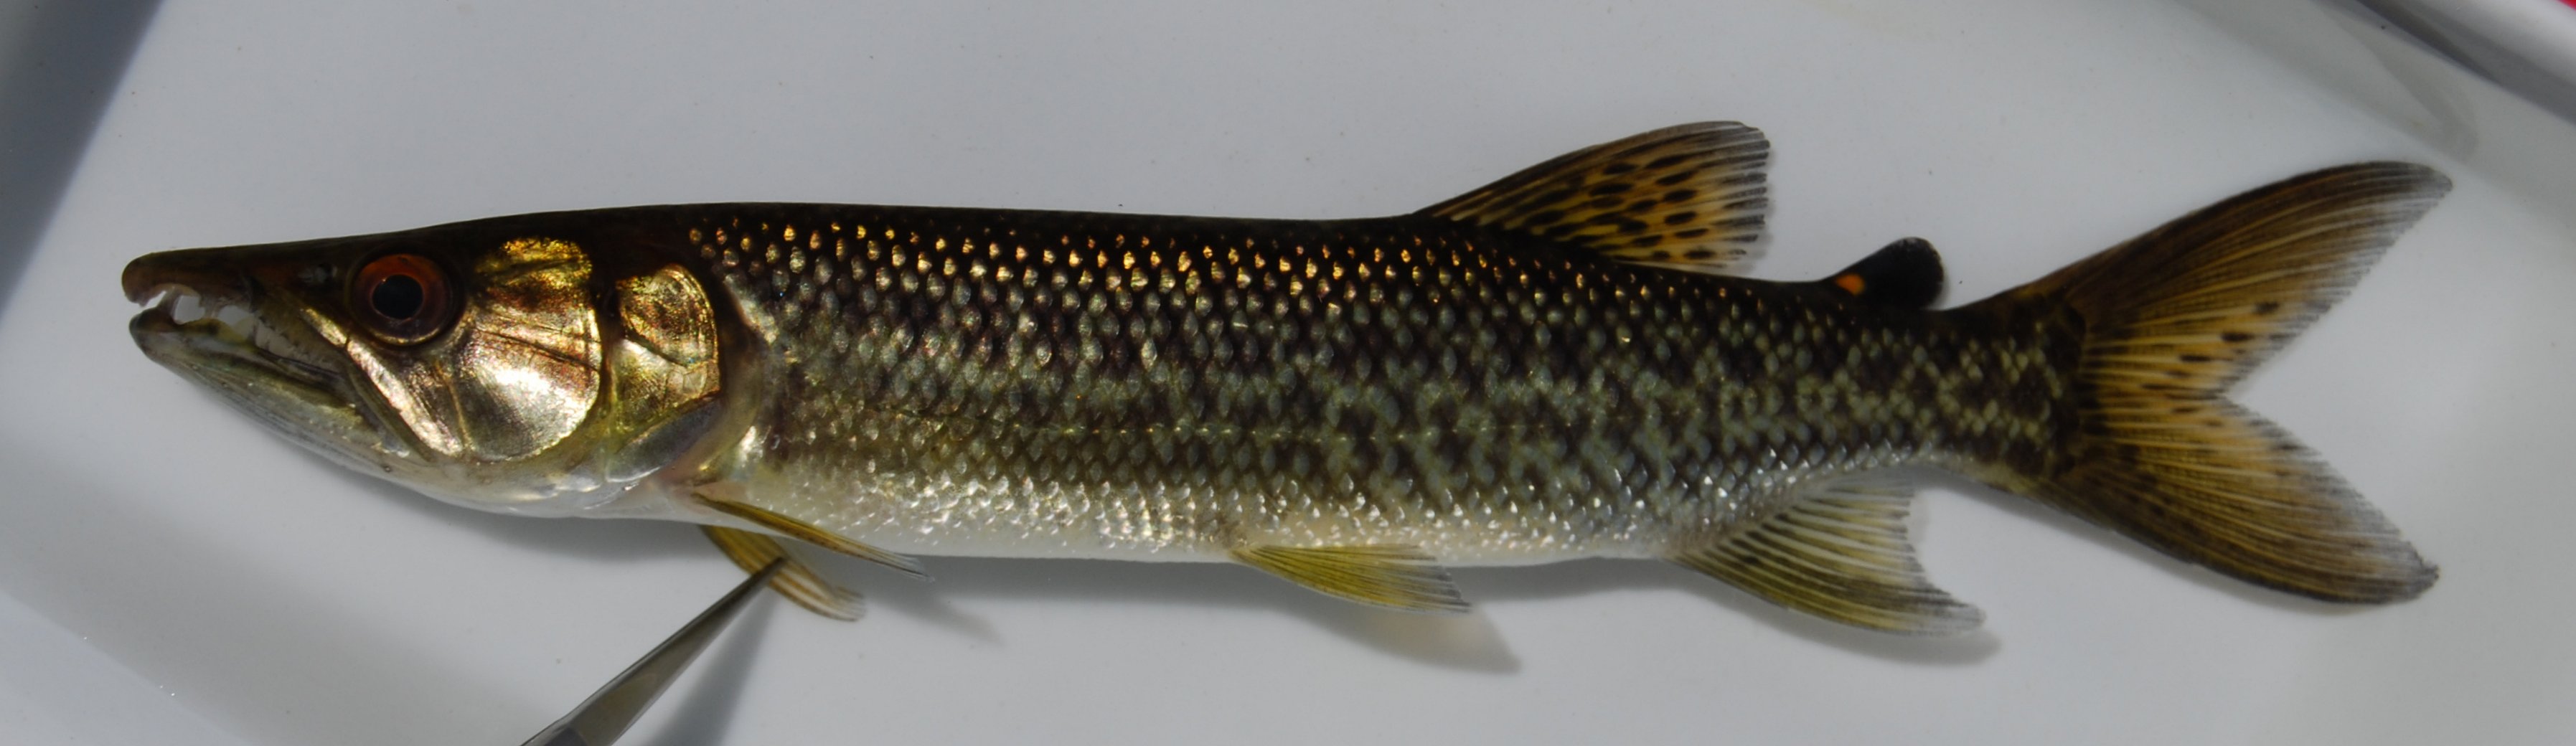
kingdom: Animalia
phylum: Chordata
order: Characiformes
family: Hepsetidae
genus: Hepsetus
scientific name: Hepsetus cuvieri
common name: African pike
